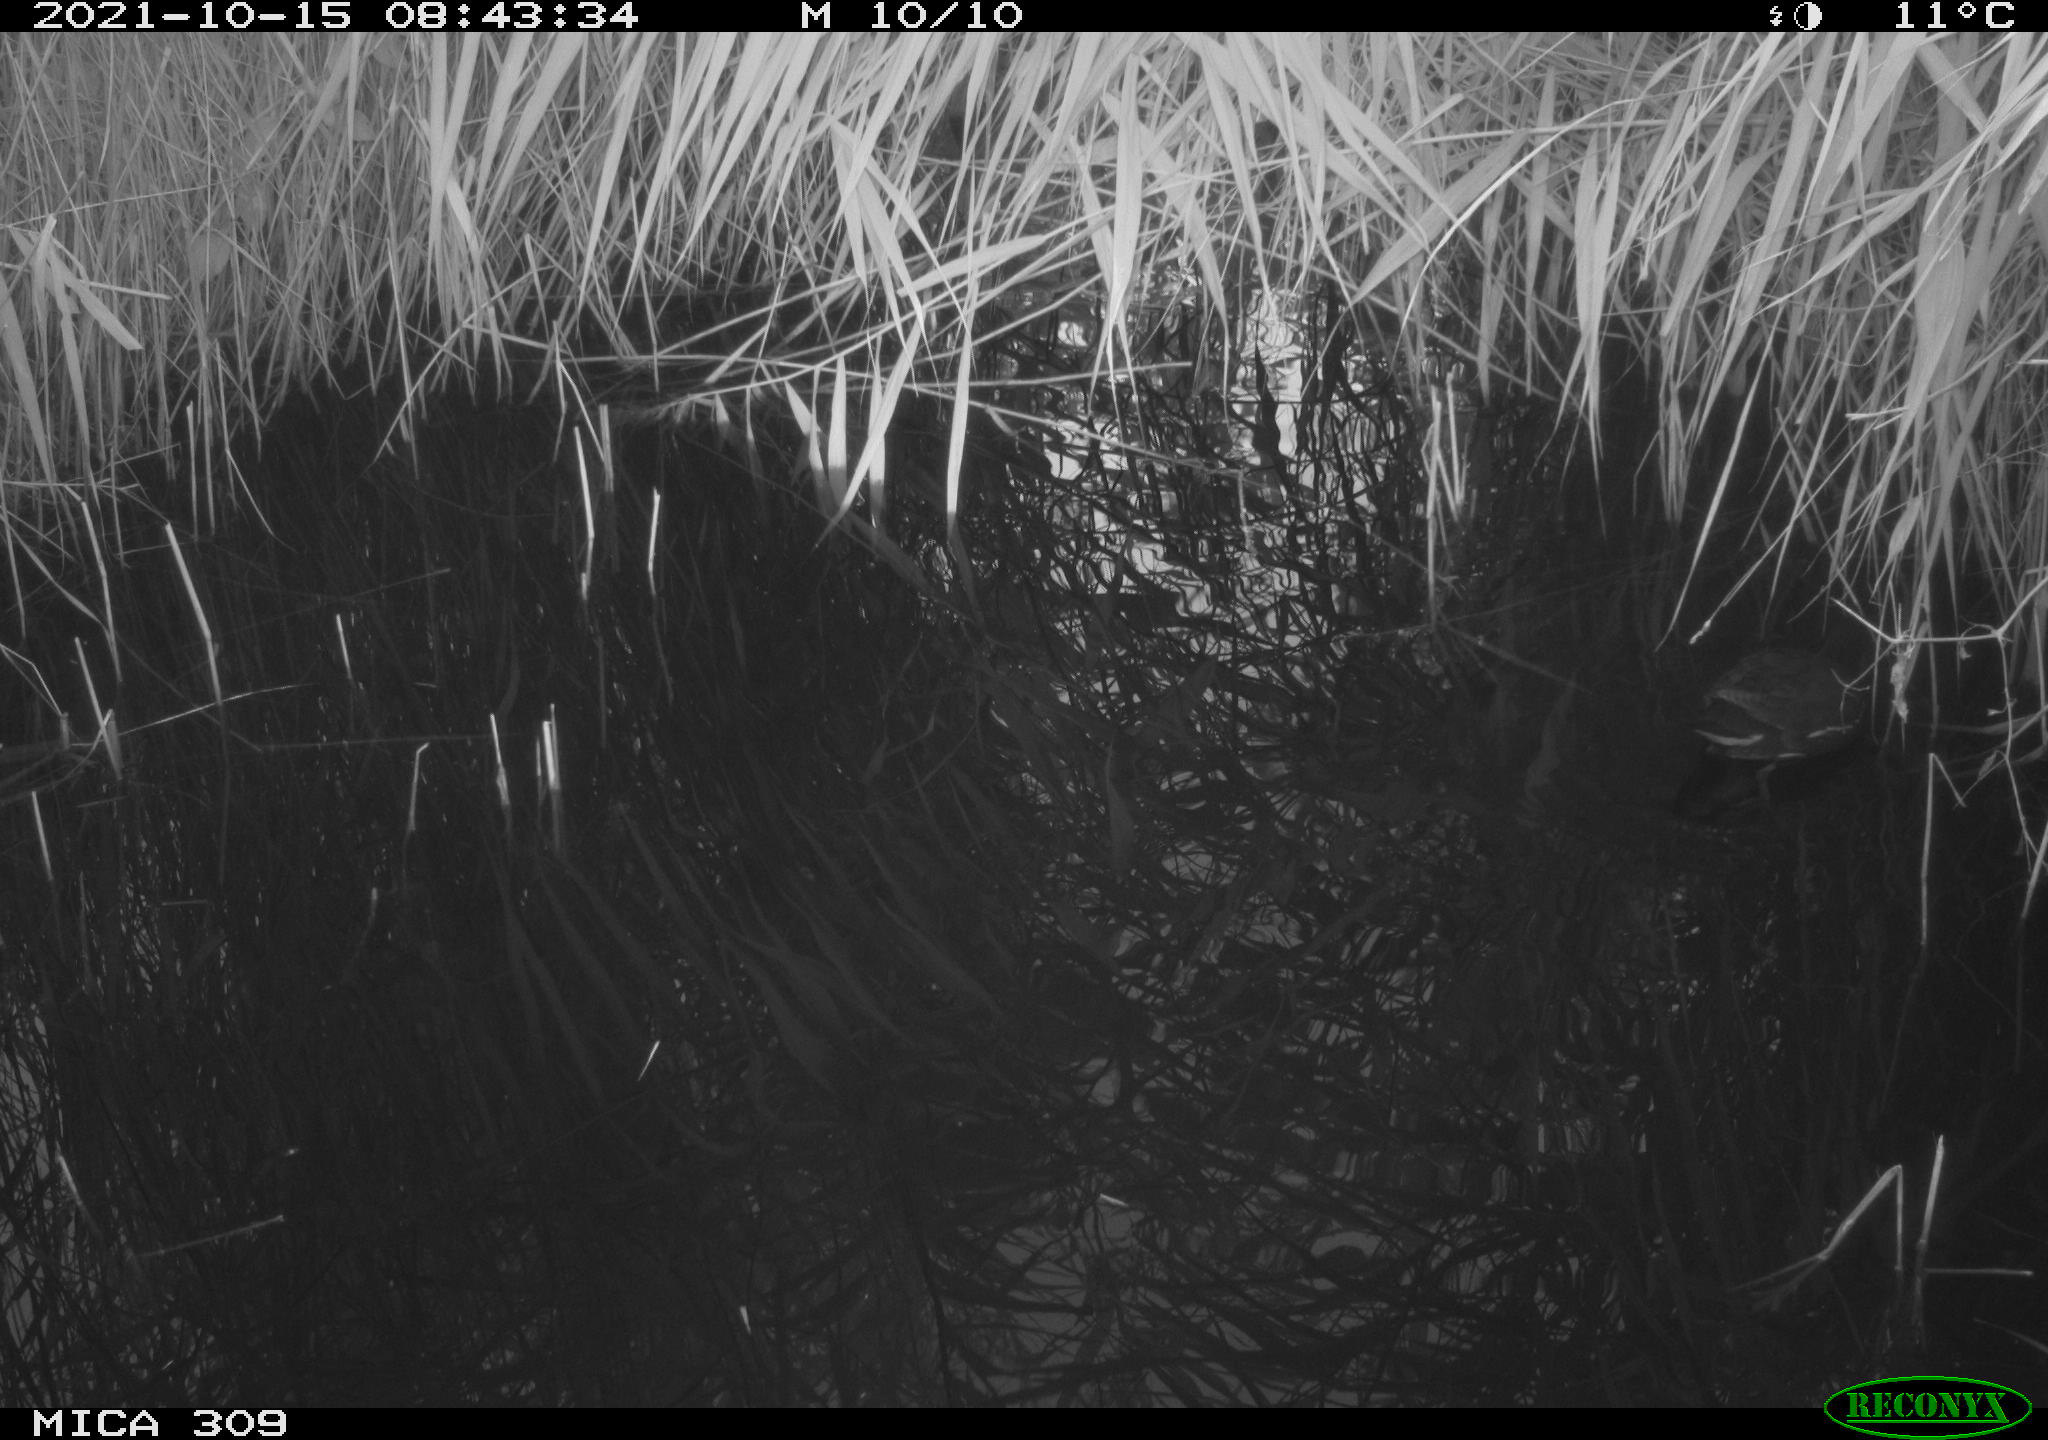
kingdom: Animalia
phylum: Chordata
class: Aves
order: Gruiformes
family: Rallidae
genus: Gallinula
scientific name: Gallinula chloropus
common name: Common moorhen
